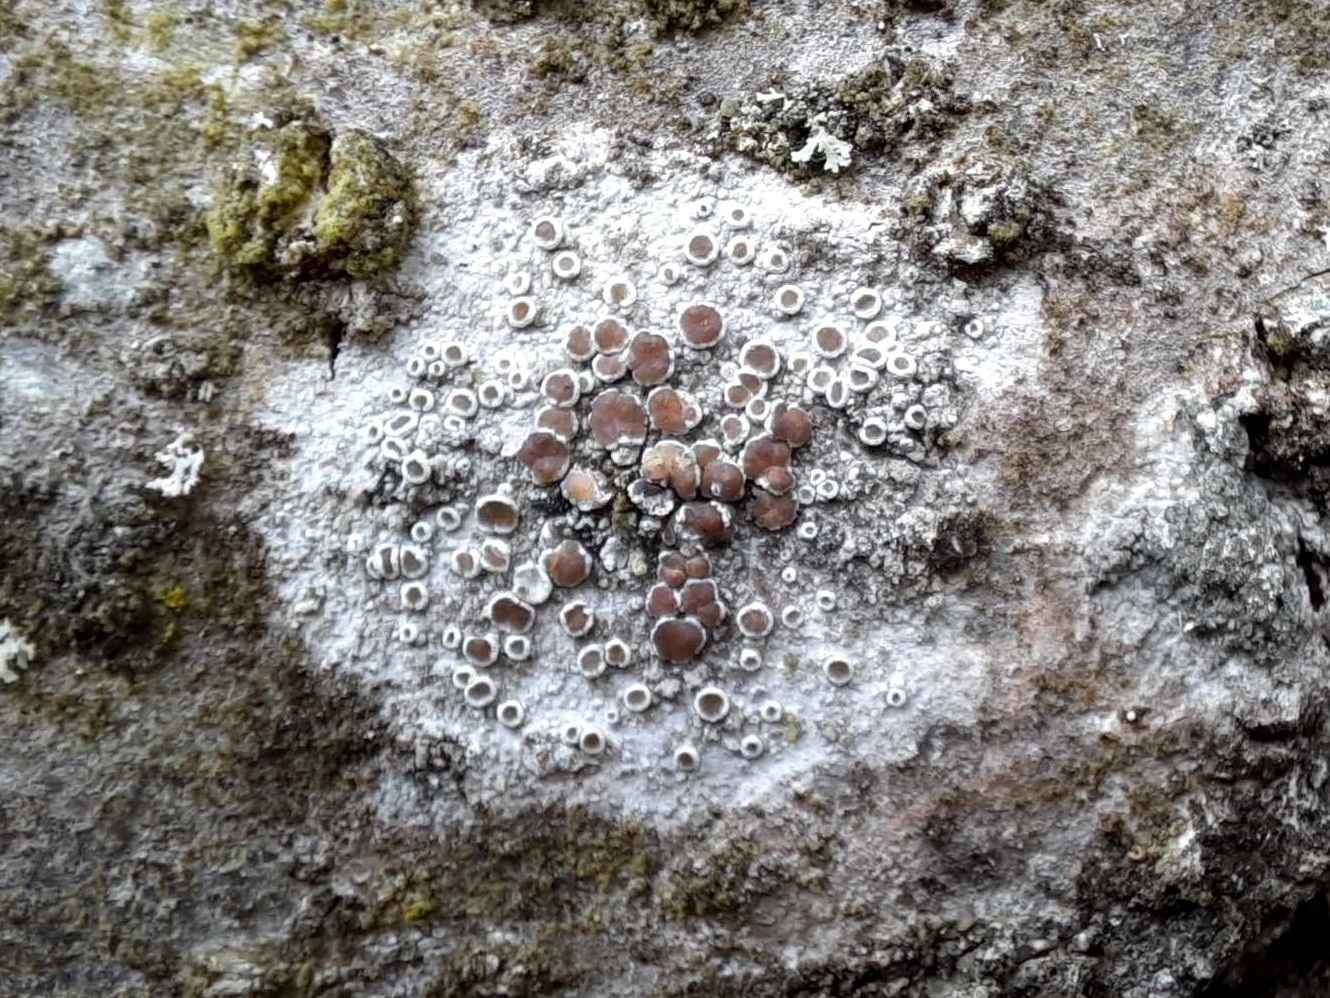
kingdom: Fungi
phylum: Ascomycota
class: Lecanoromycetes
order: Lecanorales
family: Lecanoraceae
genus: Lecanora
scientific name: Lecanora chlarotera
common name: brun kantskivelav
